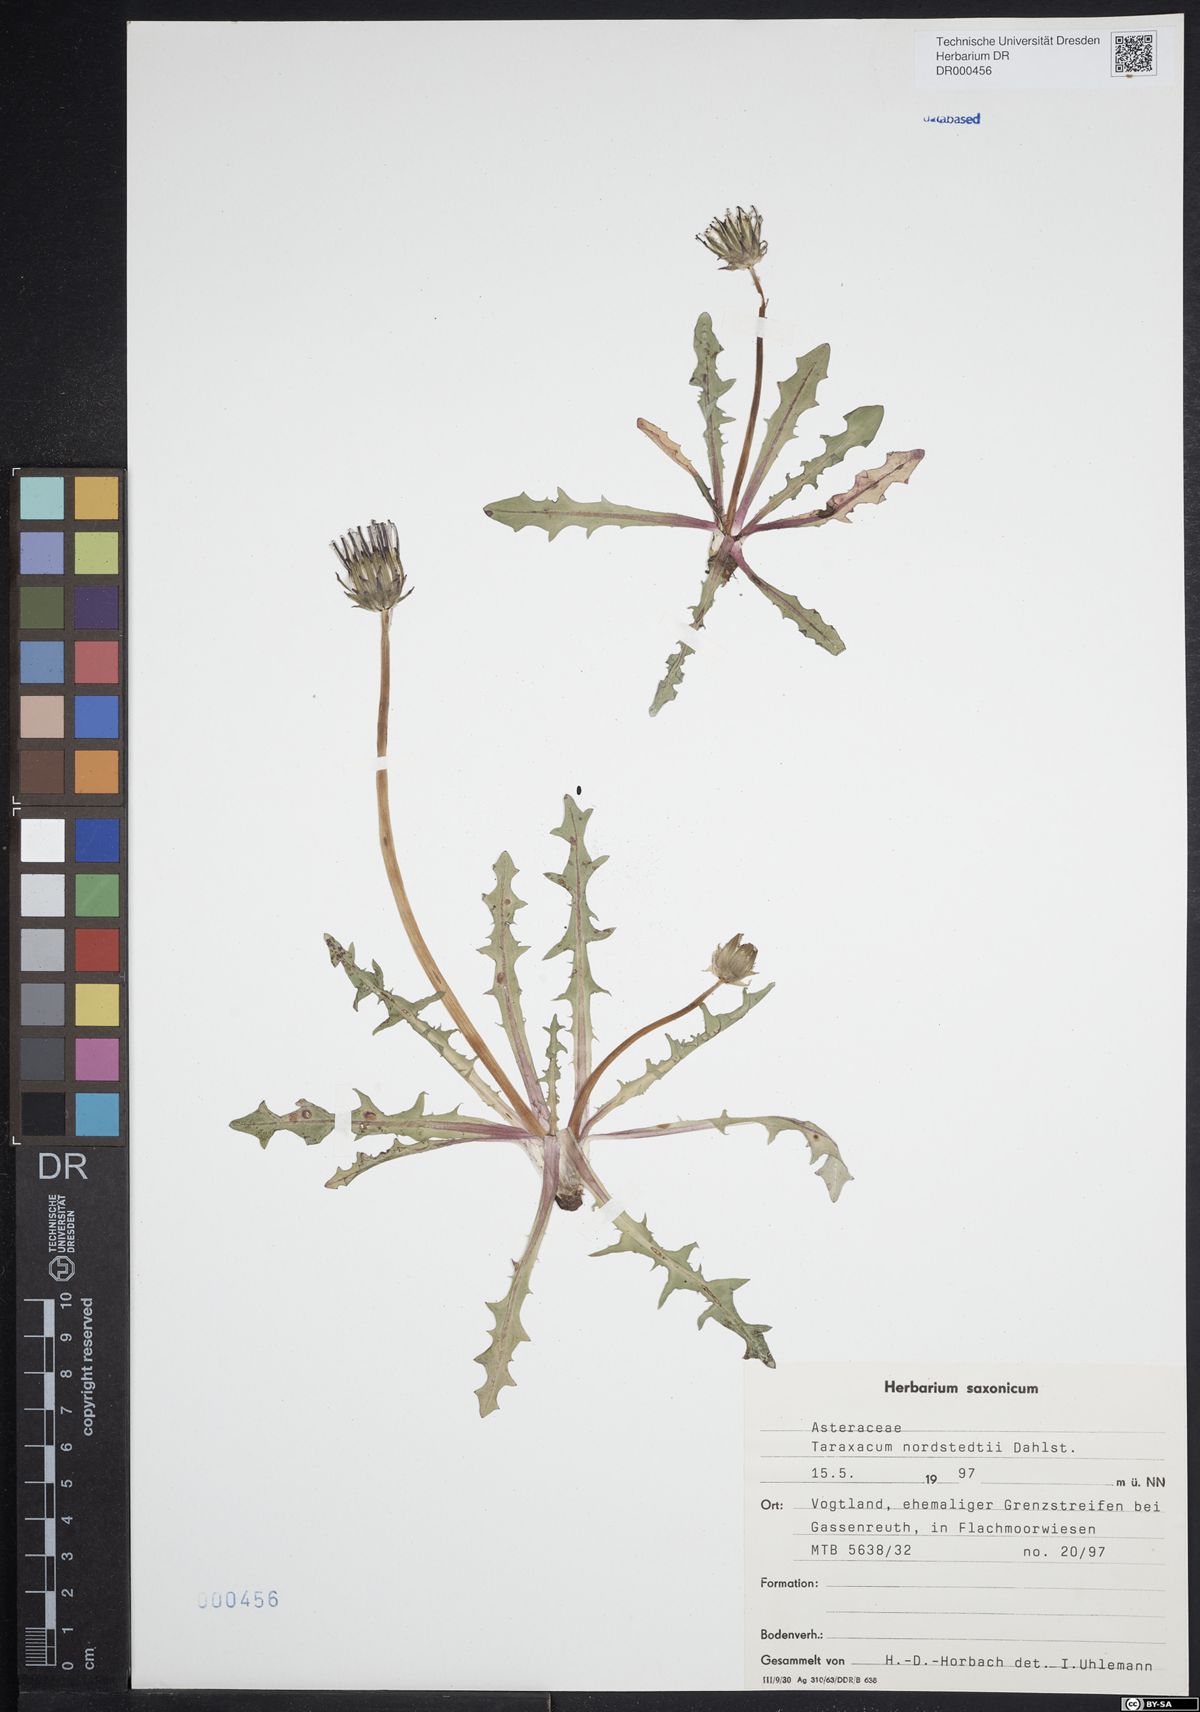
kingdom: Plantae
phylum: Tracheophyta
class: Magnoliopsida
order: Asterales
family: Asteraceae
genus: Taraxacum
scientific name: Taraxacum nordstedtii
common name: Nordstedt's dandelion
